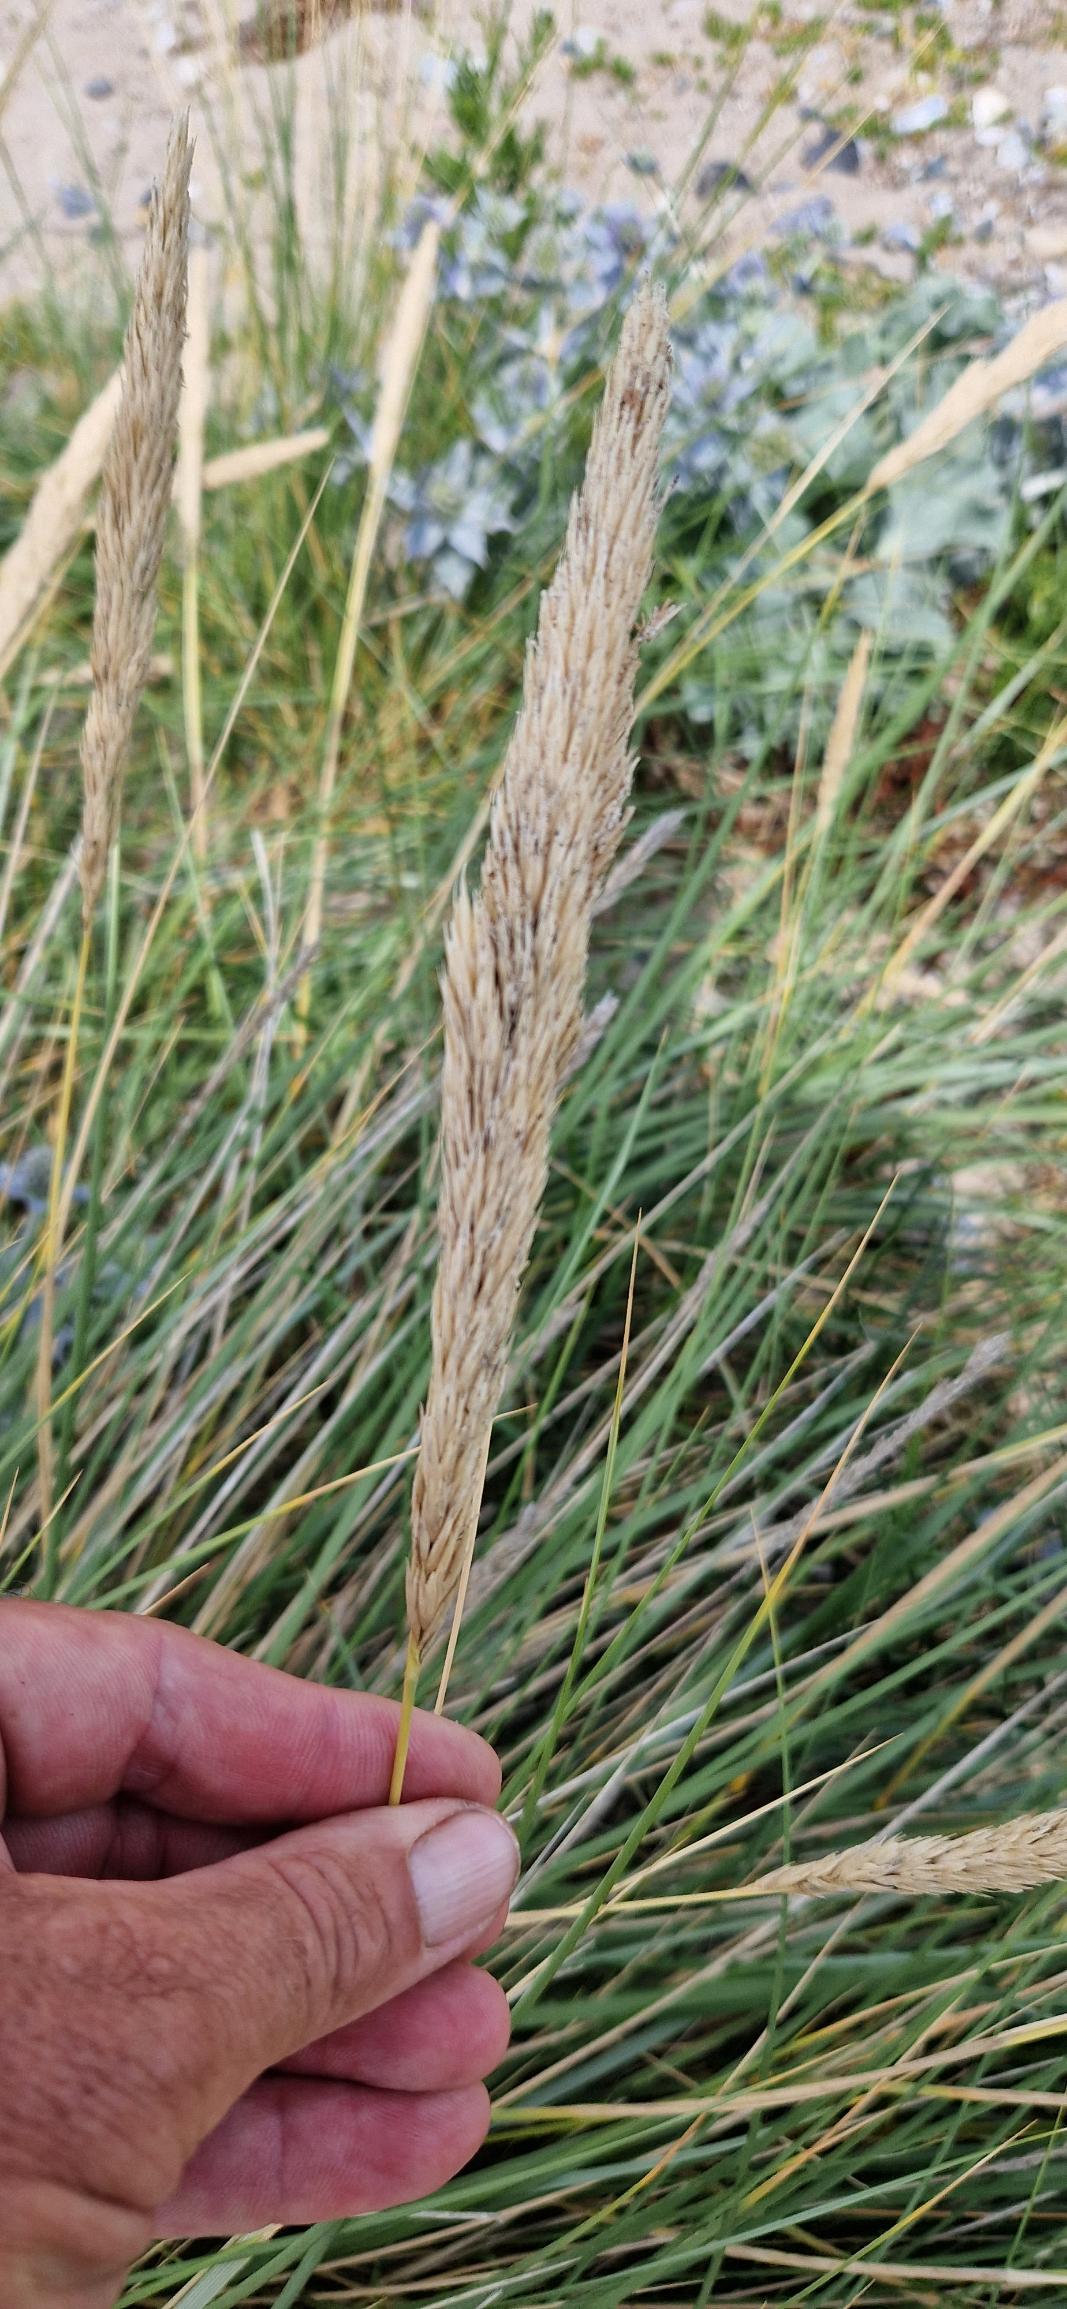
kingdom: Plantae
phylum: Tracheophyta
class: Liliopsida
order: Poales
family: Poaceae
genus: Calamagrostis
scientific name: Calamagrostis arenaria
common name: Sand-hjælme
